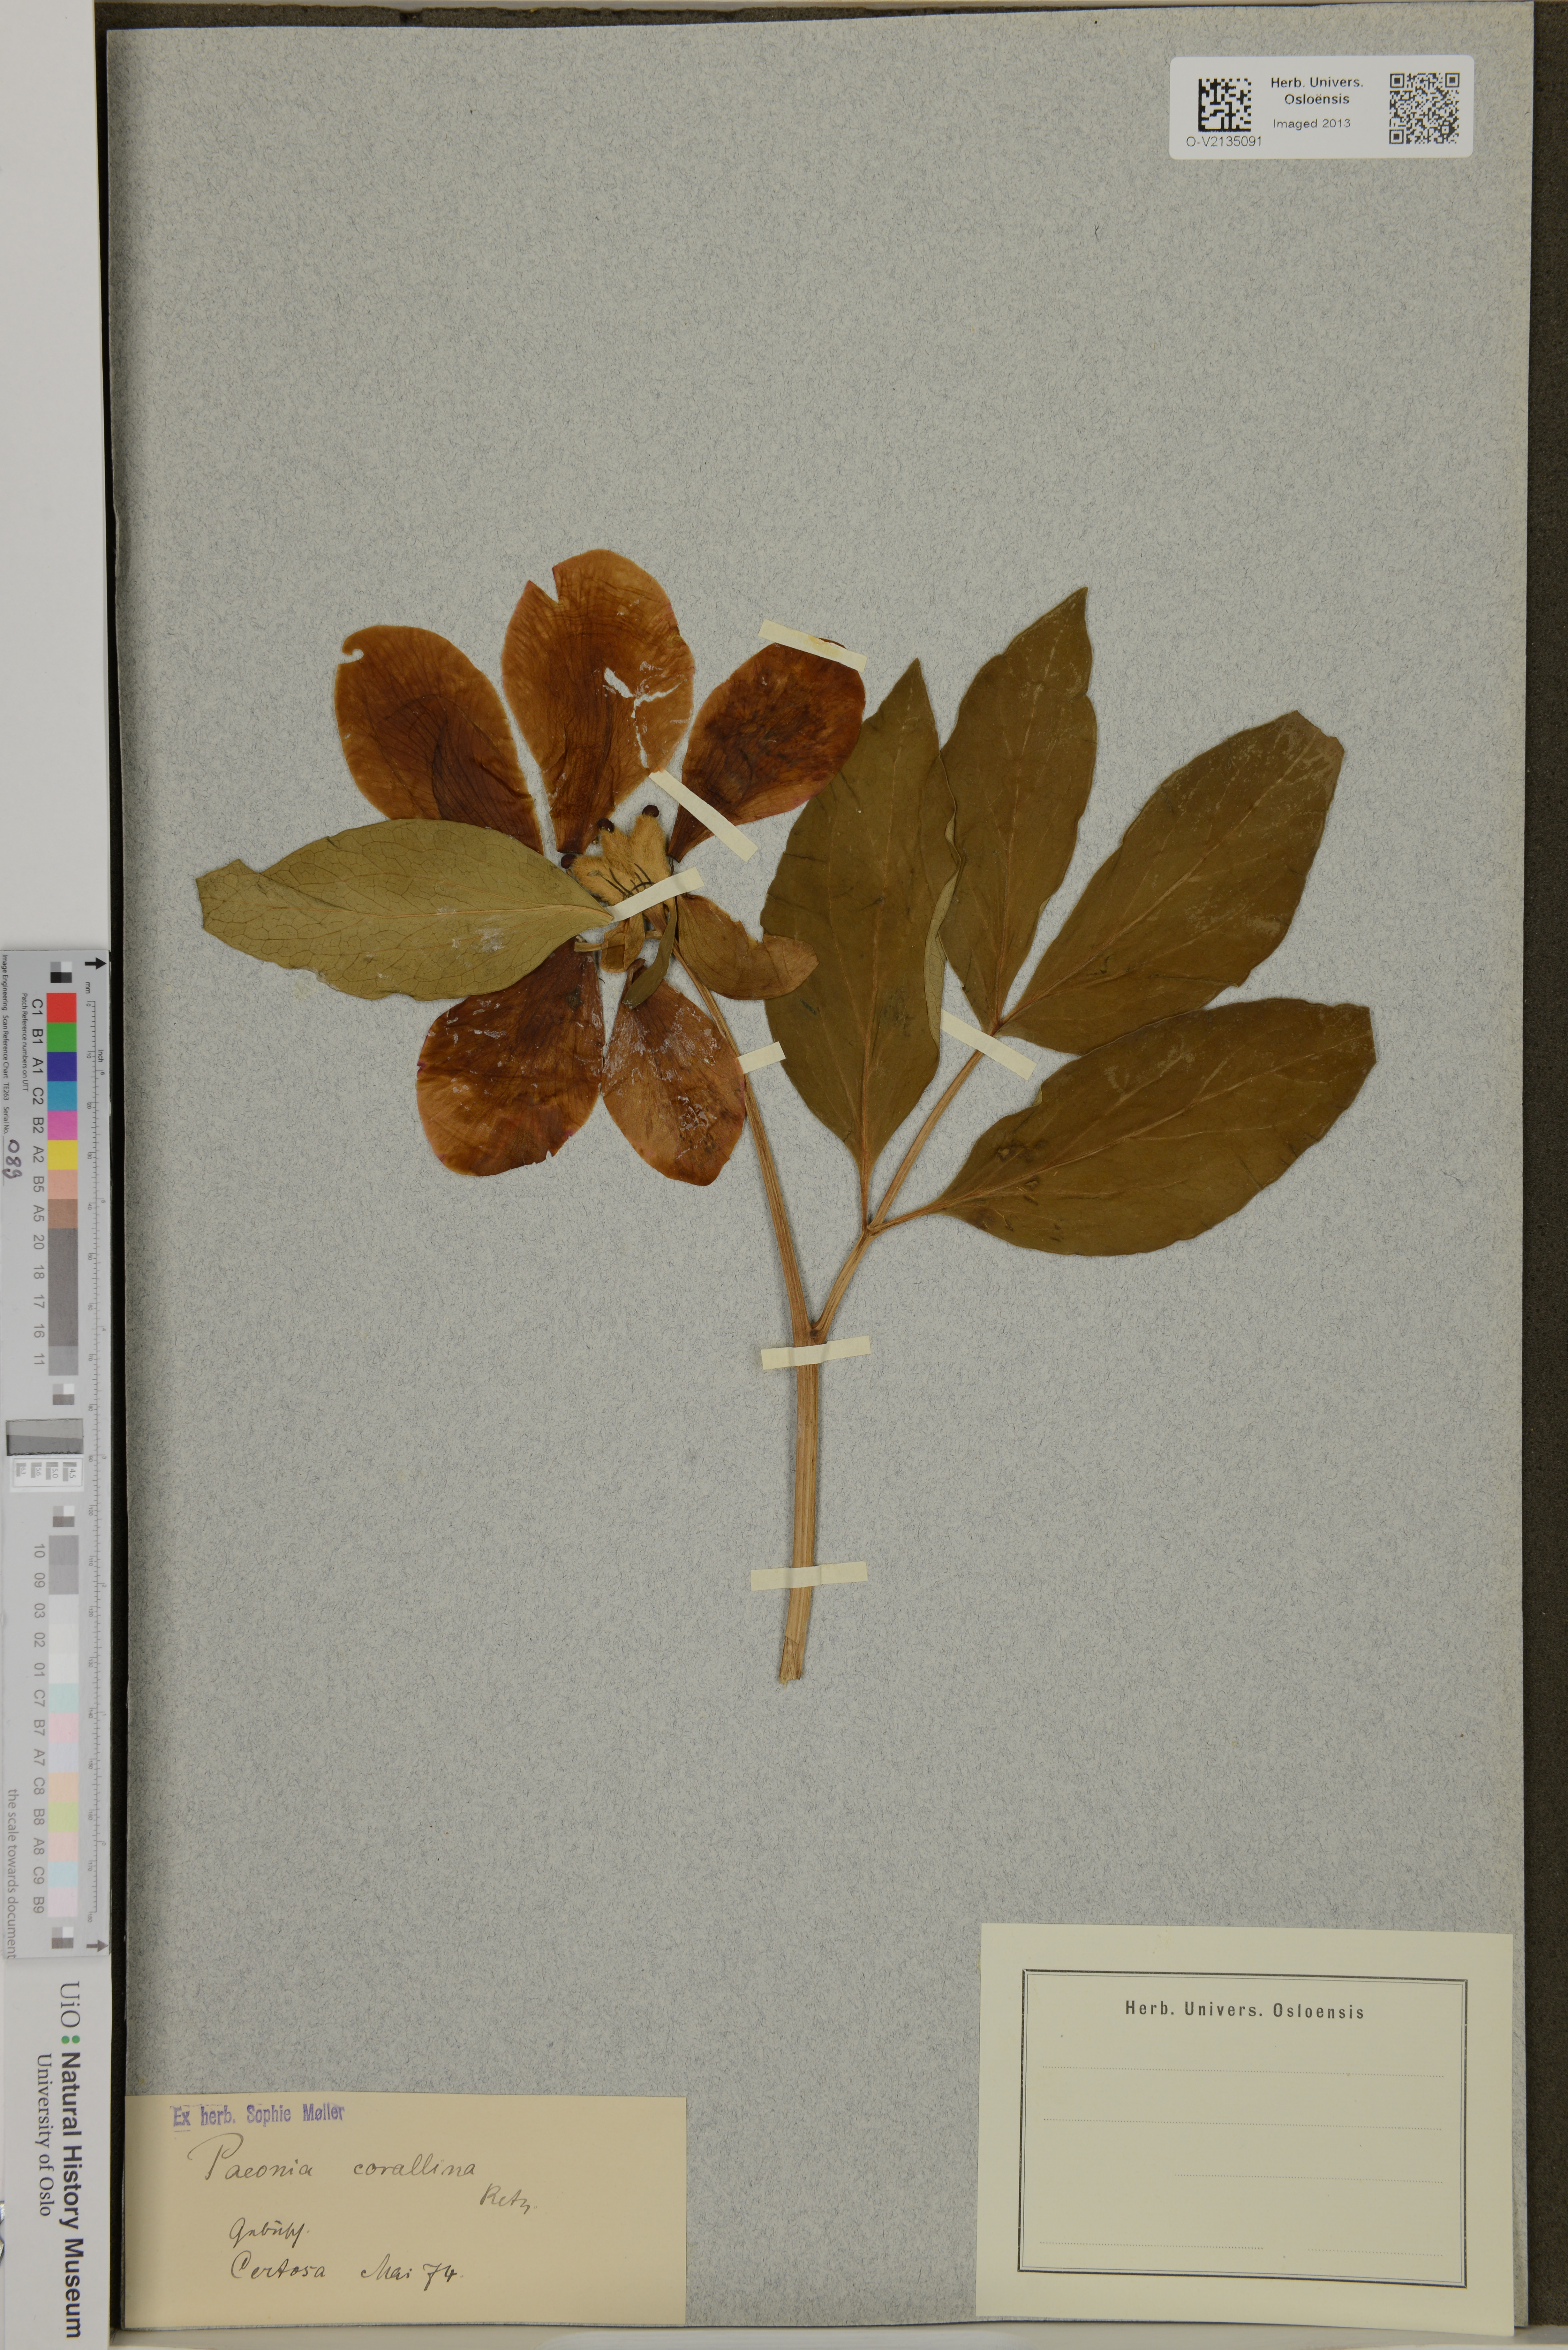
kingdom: Plantae
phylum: Tracheophyta
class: Magnoliopsida
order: Saxifragales
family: Paeoniaceae
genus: Paeonia
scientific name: Paeonia mascula
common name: Peony
